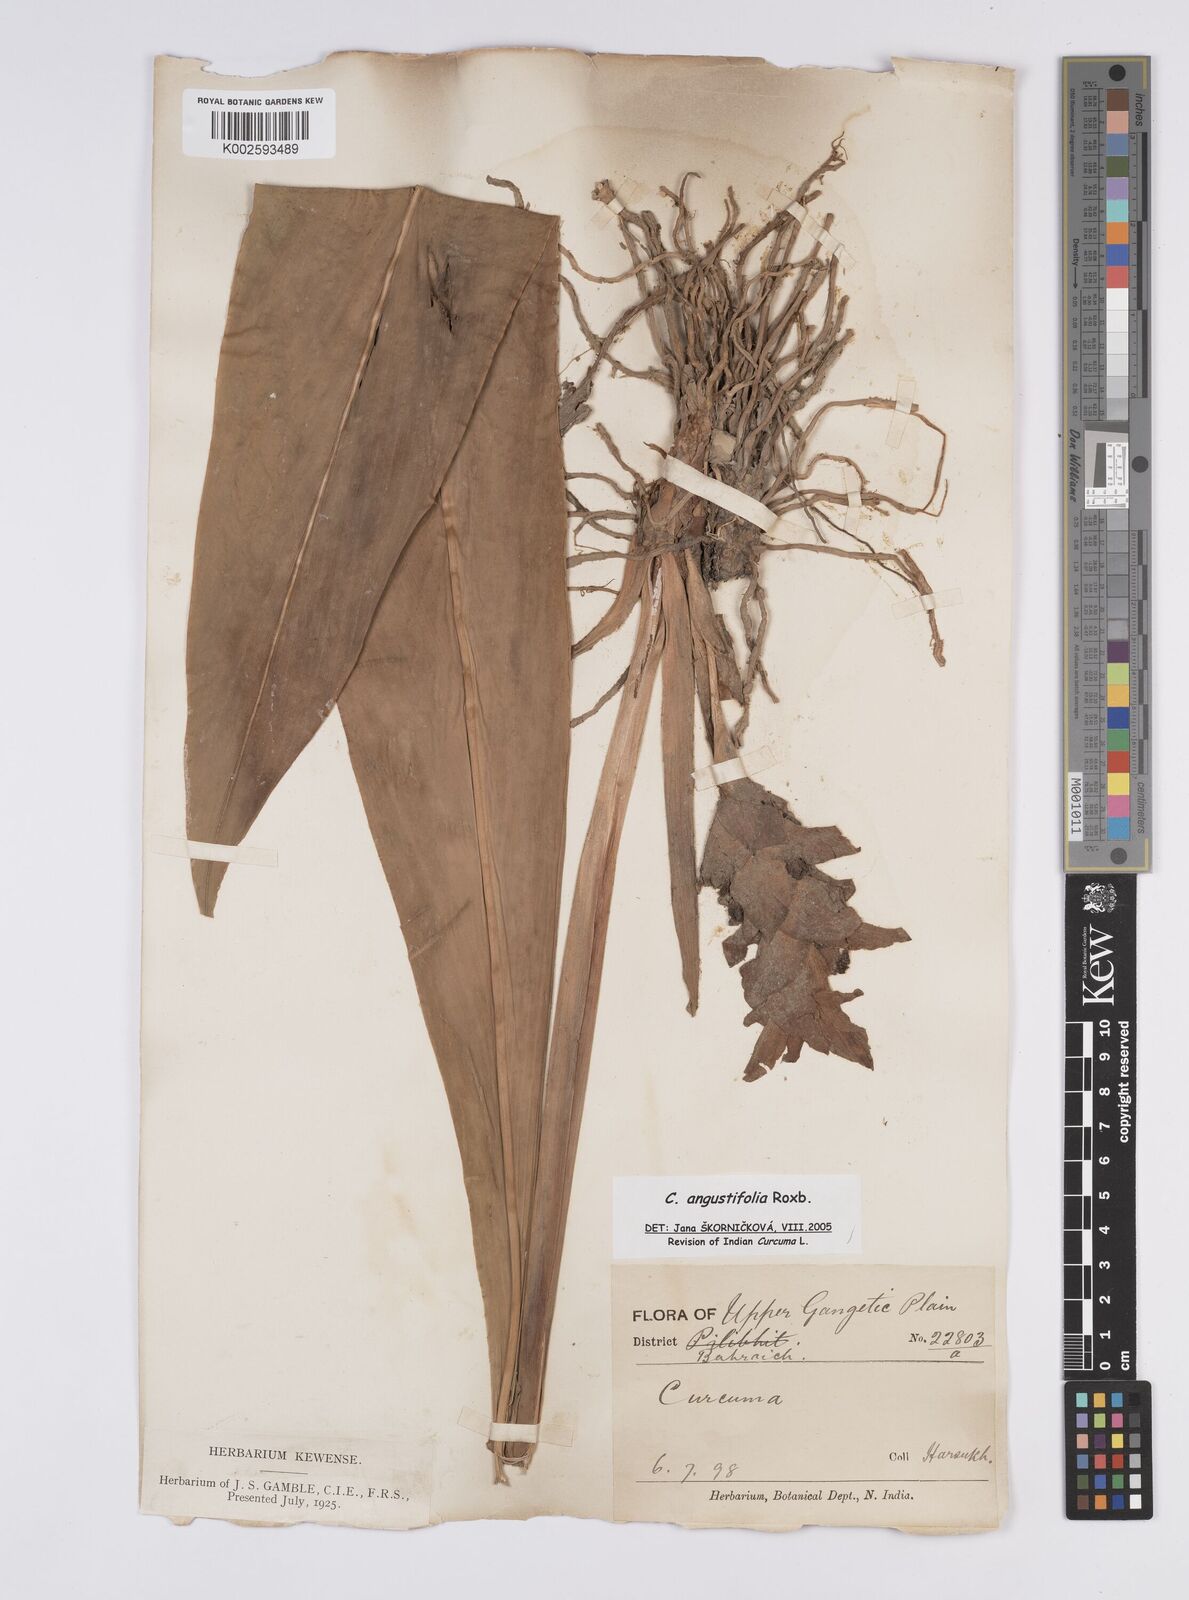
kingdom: Plantae
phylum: Tracheophyta
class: Liliopsida
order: Zingiberales
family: Zingiberaceae
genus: Curcuma
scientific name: Curcuma angustifolia
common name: East indian arrowroot
